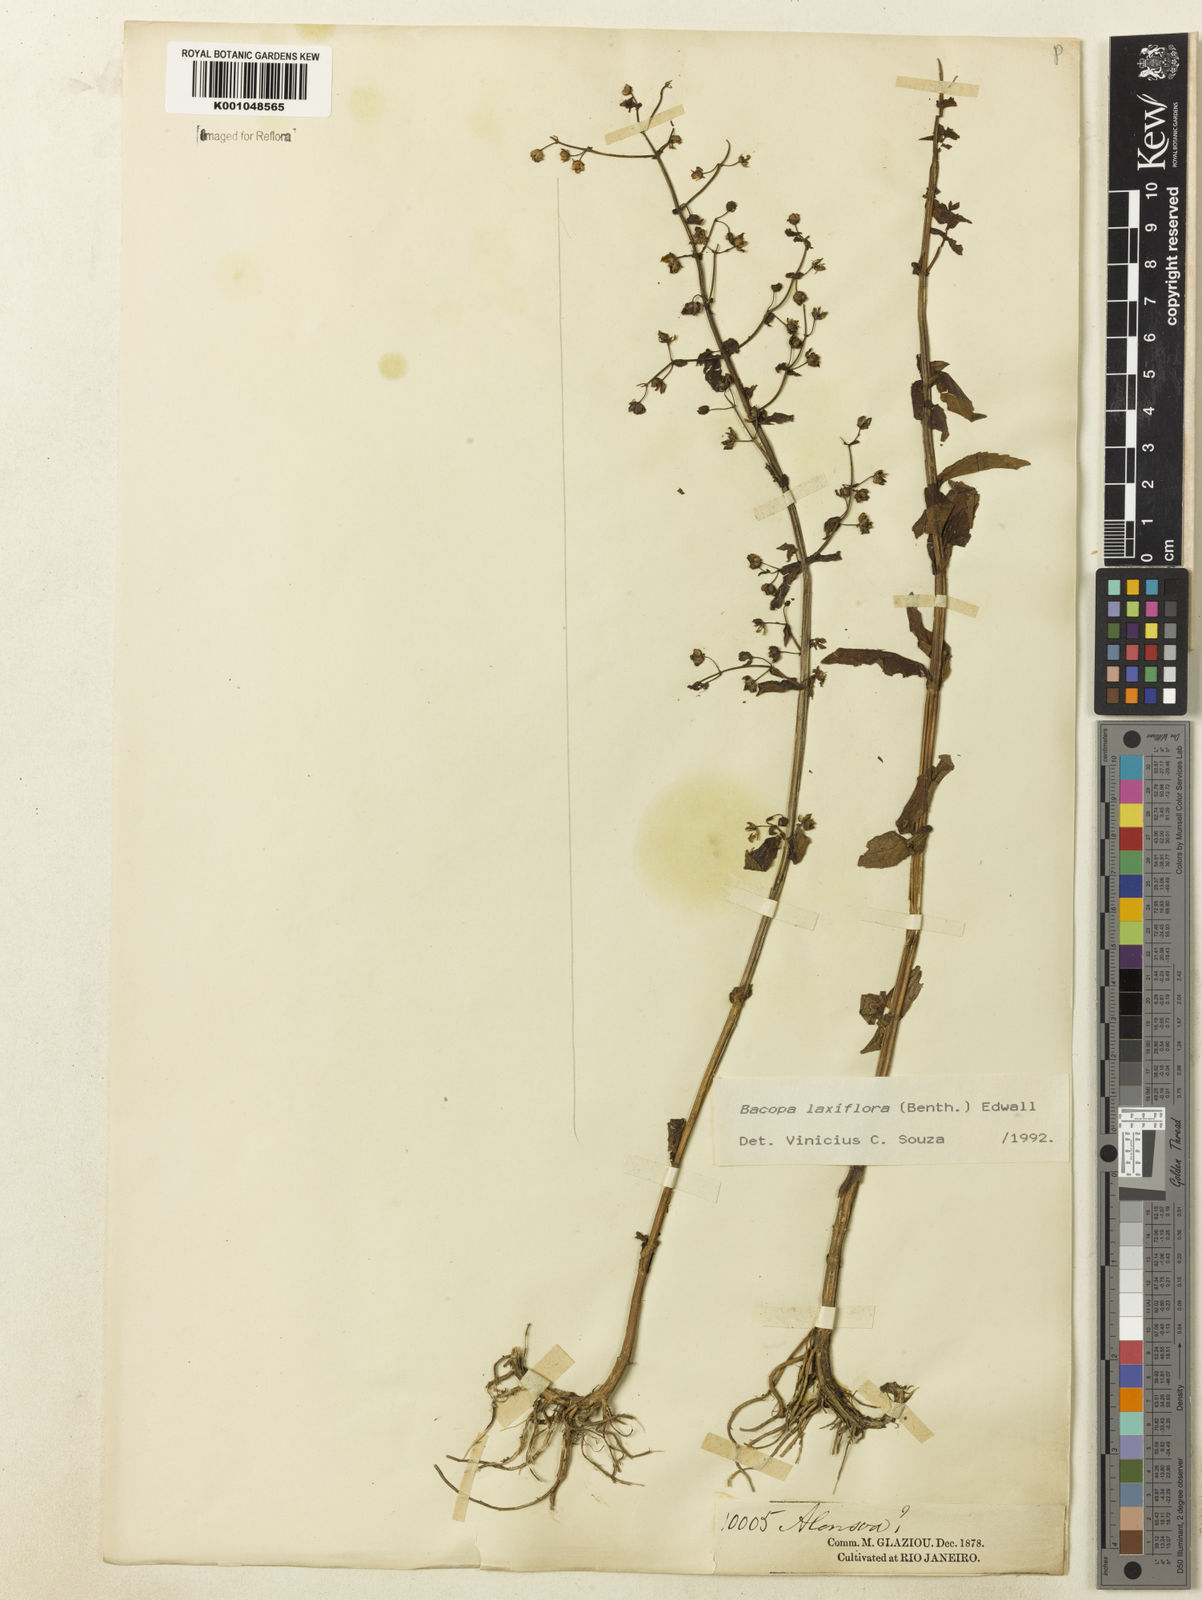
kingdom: Plantae
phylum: Tracheophyta
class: Magnoliopsida
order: Lamiales
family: Plantaginaceae
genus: Bacopa
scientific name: Bacopa laxiflora
